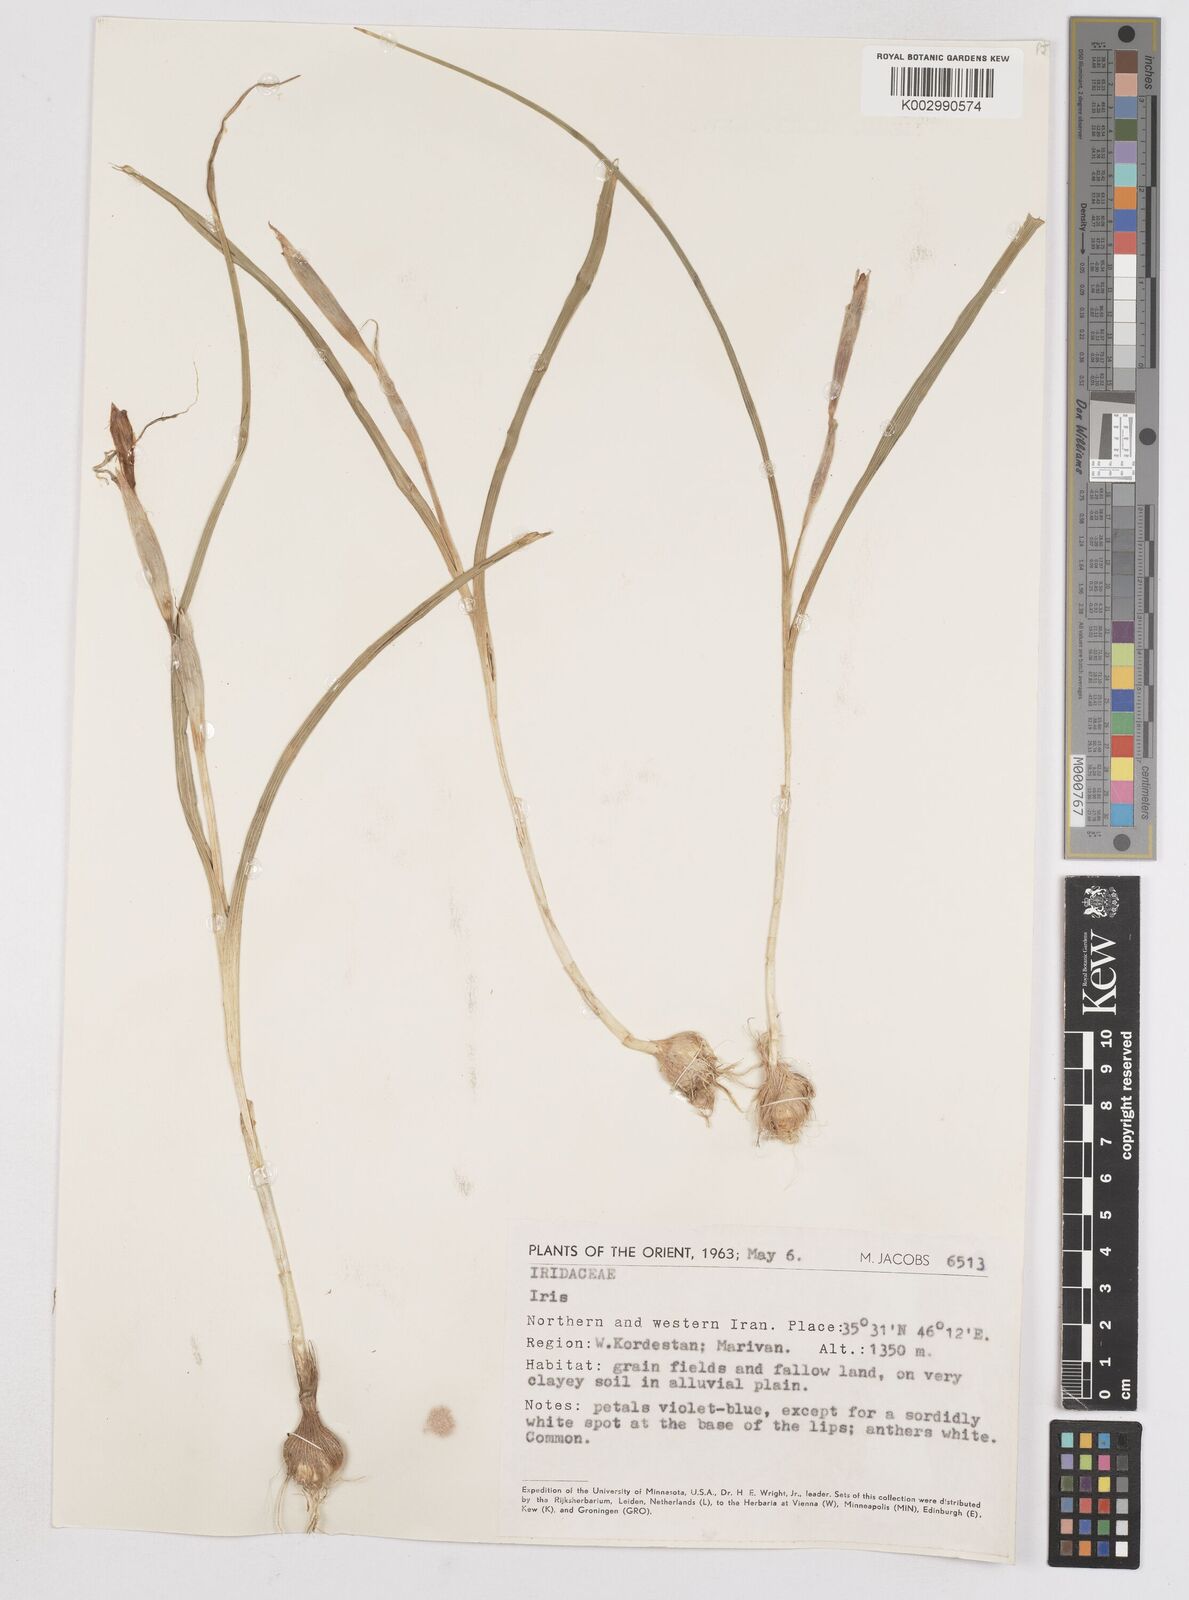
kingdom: Plantae
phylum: Tracheophyta
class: Liliopsida
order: Asparagales
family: Iridaceae
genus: Moraea
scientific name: Moraea sisyrinchium
